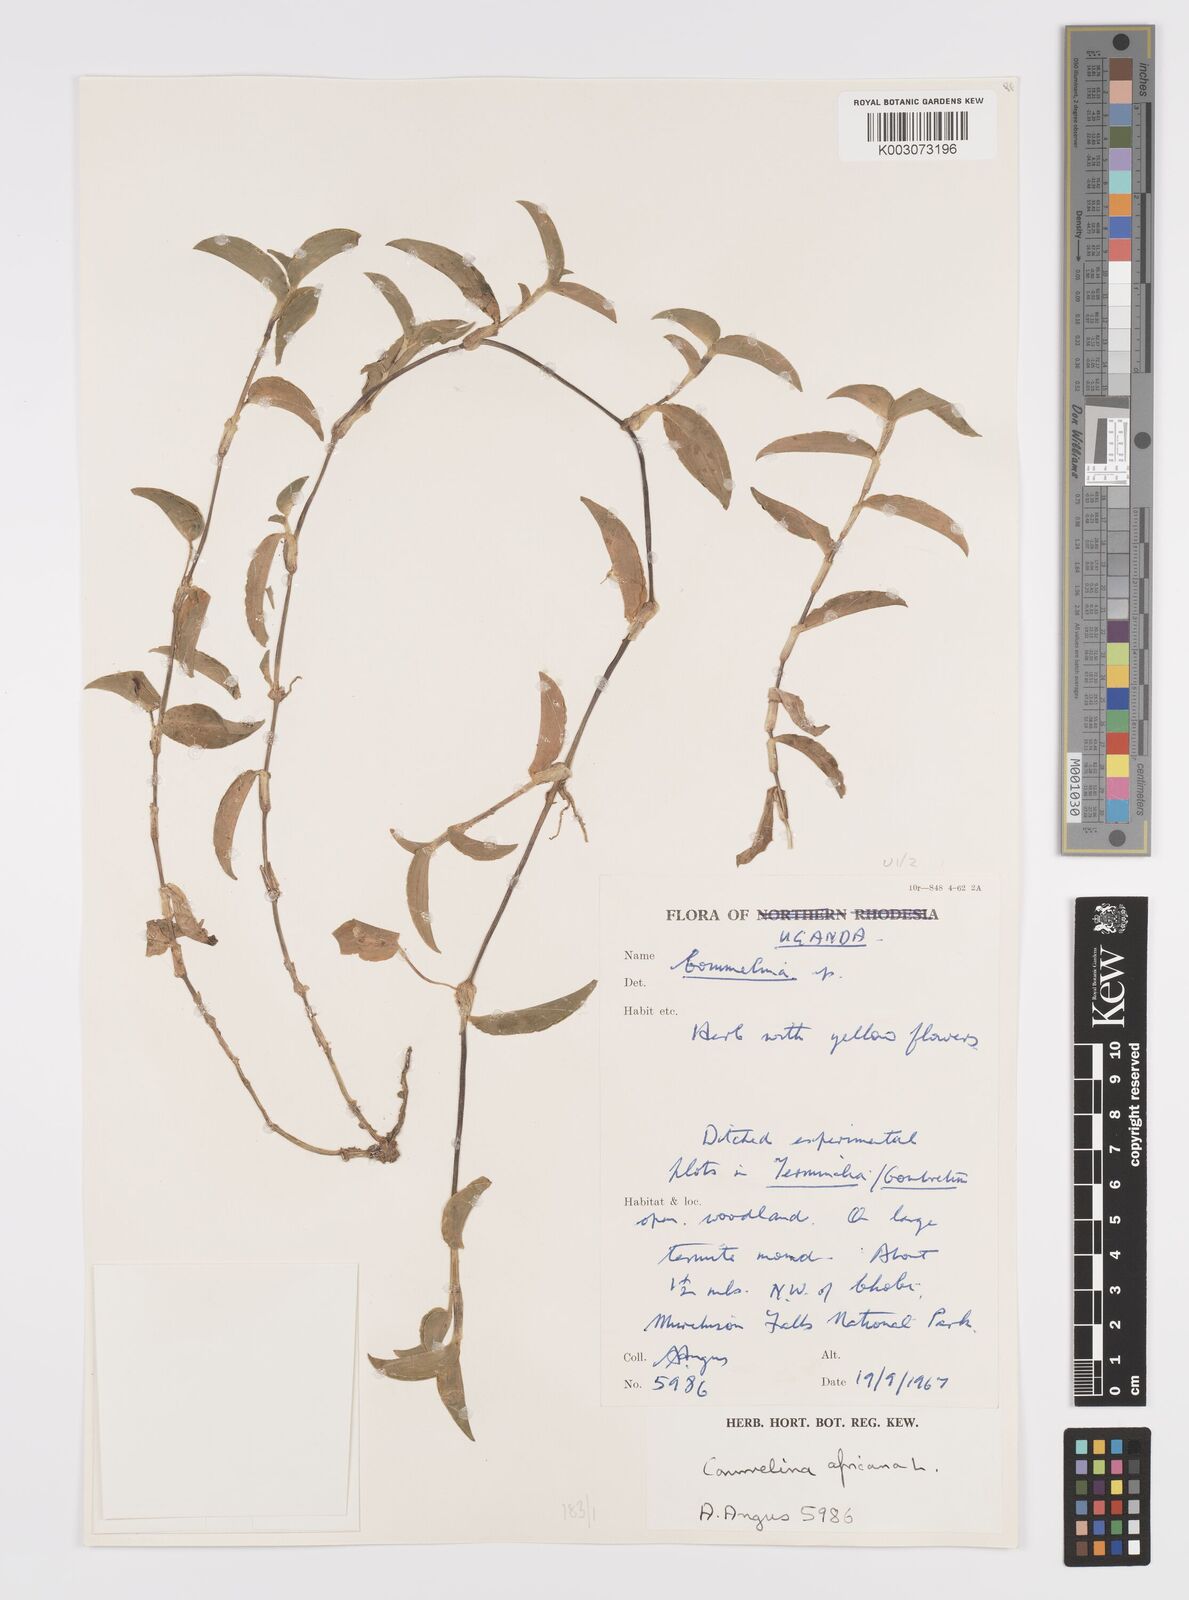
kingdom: Plantae
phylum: Tracheophyta
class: Liliopsida
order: Commelinales
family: Commelinaceae
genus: Commelina
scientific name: Commelina africana
